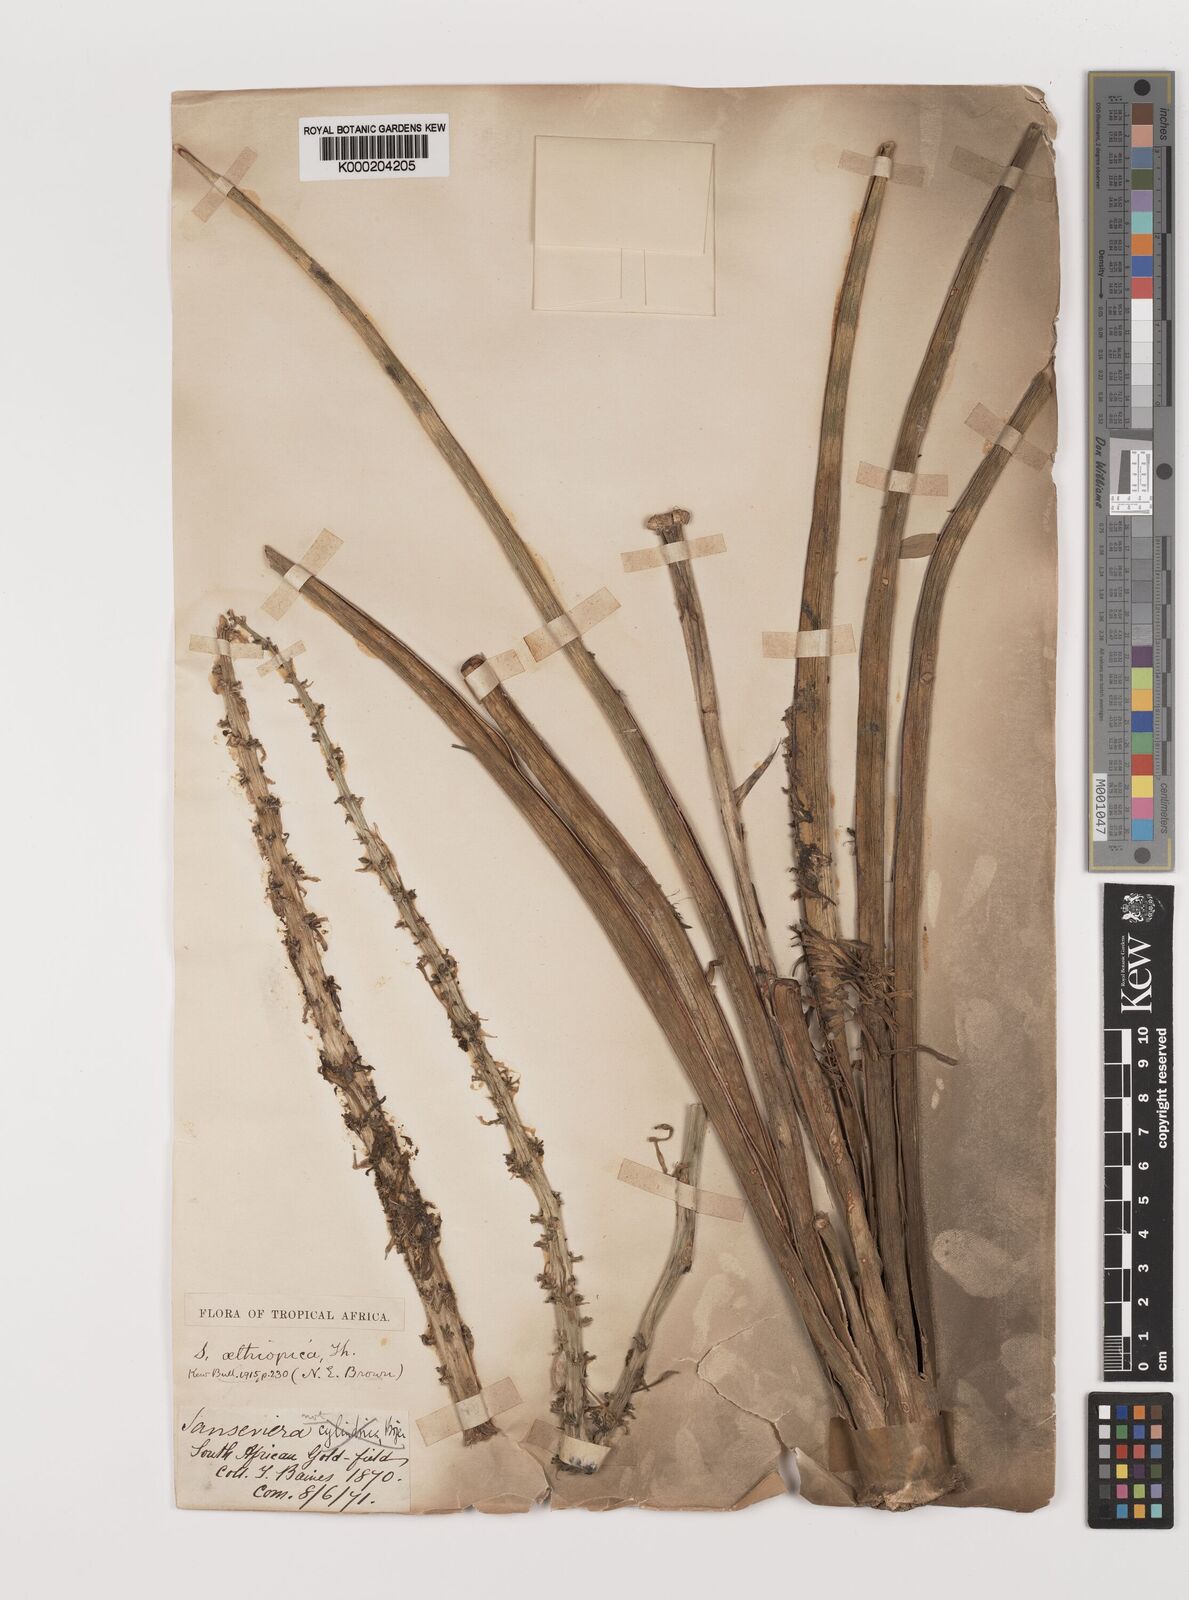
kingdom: Plantae
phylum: Tracheophyta
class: Liliopsida
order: Asparagales
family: Asparagaceae
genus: Dracaena
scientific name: Dracaena aethiopica
